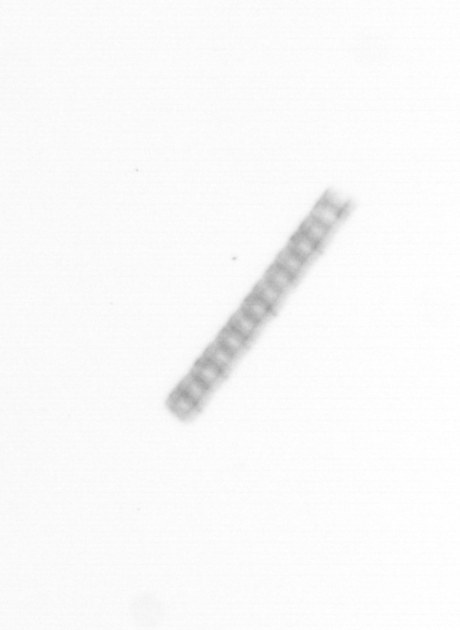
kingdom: Chromista
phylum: Ochrophyta
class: Bacillariophyceae
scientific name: Bacillariophyceae
